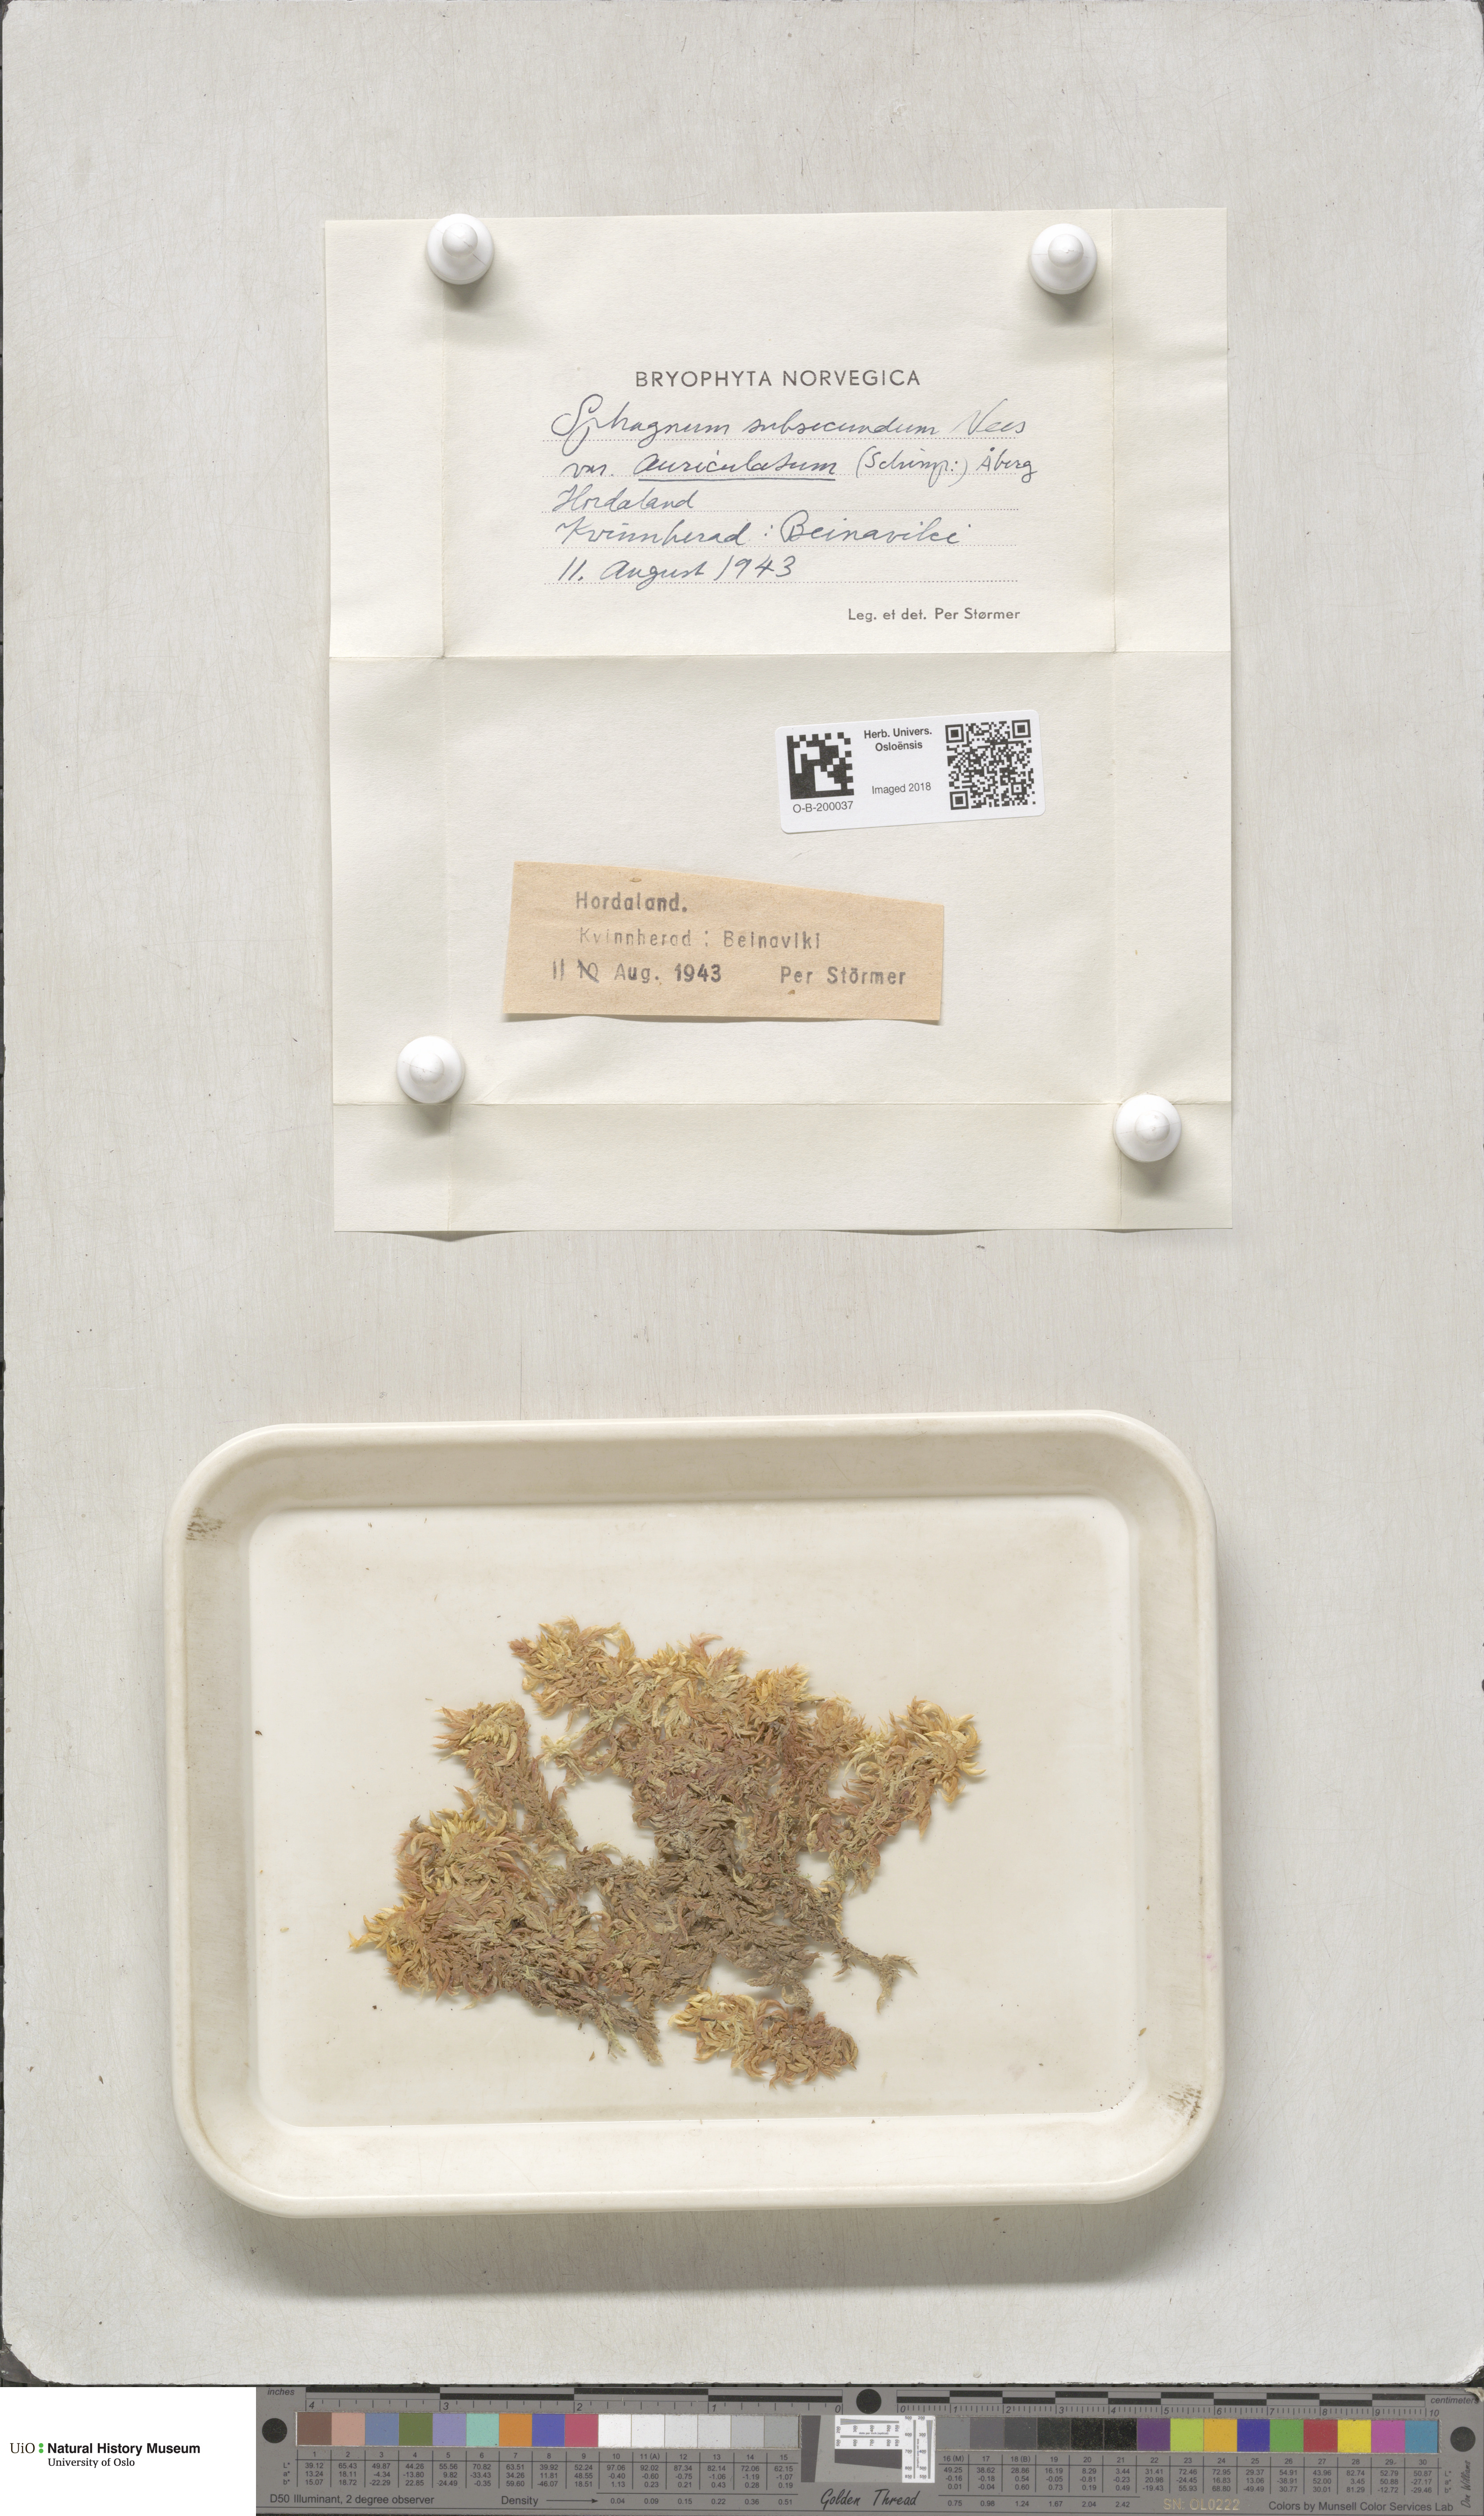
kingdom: Plantae
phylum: Bryophyta
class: Sphagnopsida
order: Sphagnales
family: Sphagnaceae
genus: Sphagnum
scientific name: Sphagnum denticulatum
